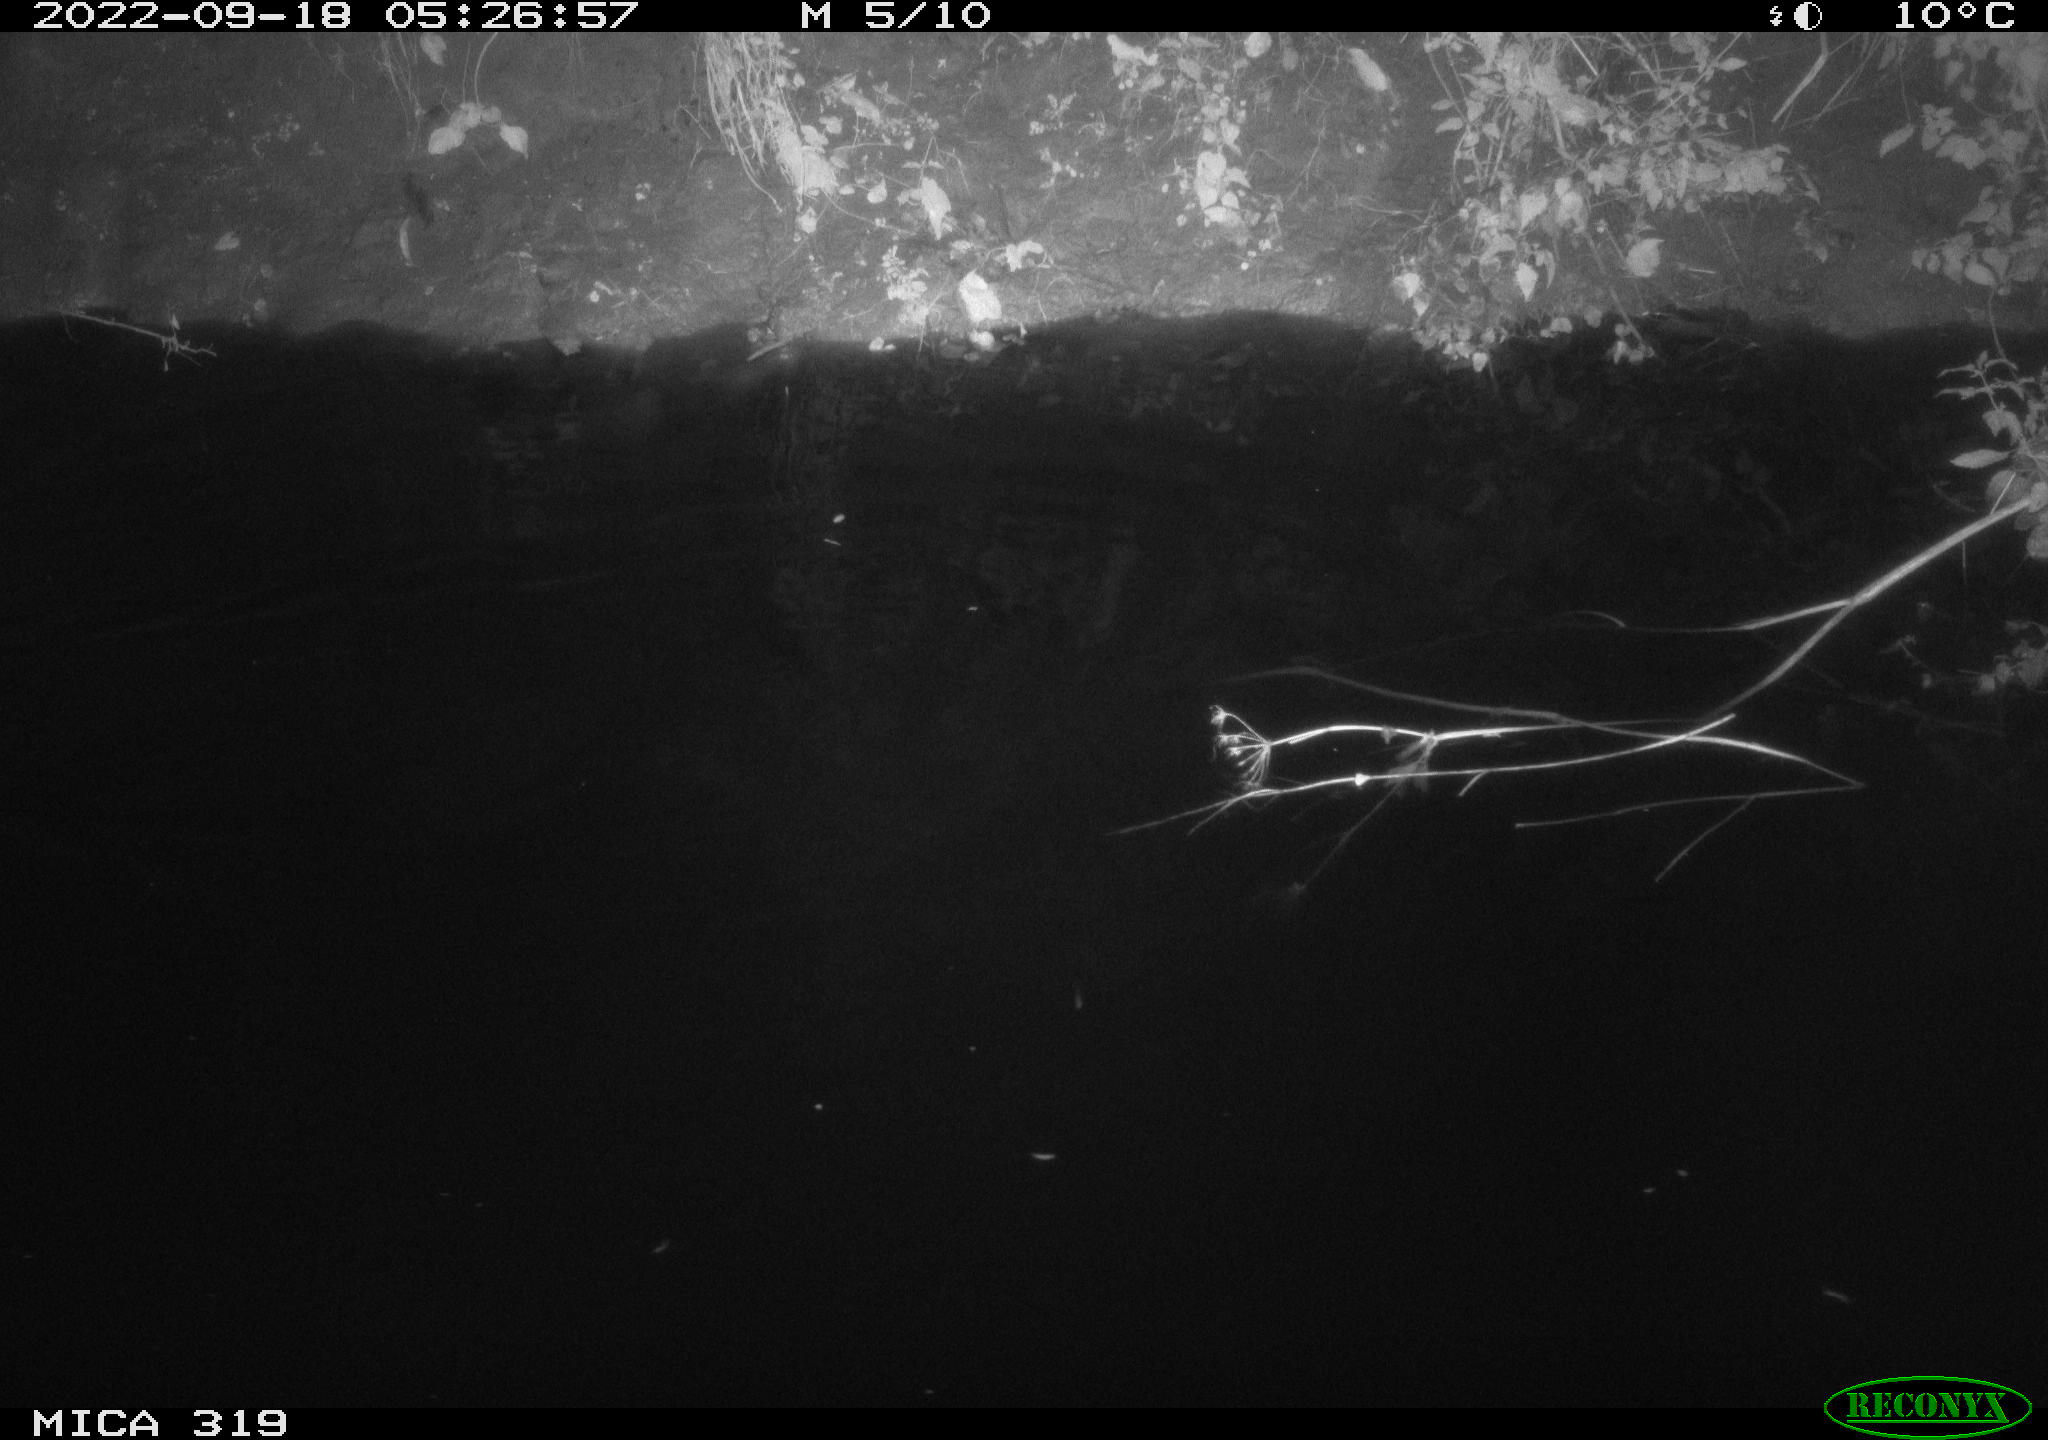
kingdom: Animalia
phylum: Chordata
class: Aves
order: Anseriformes
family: Anatidae
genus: Anas
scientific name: Anas
